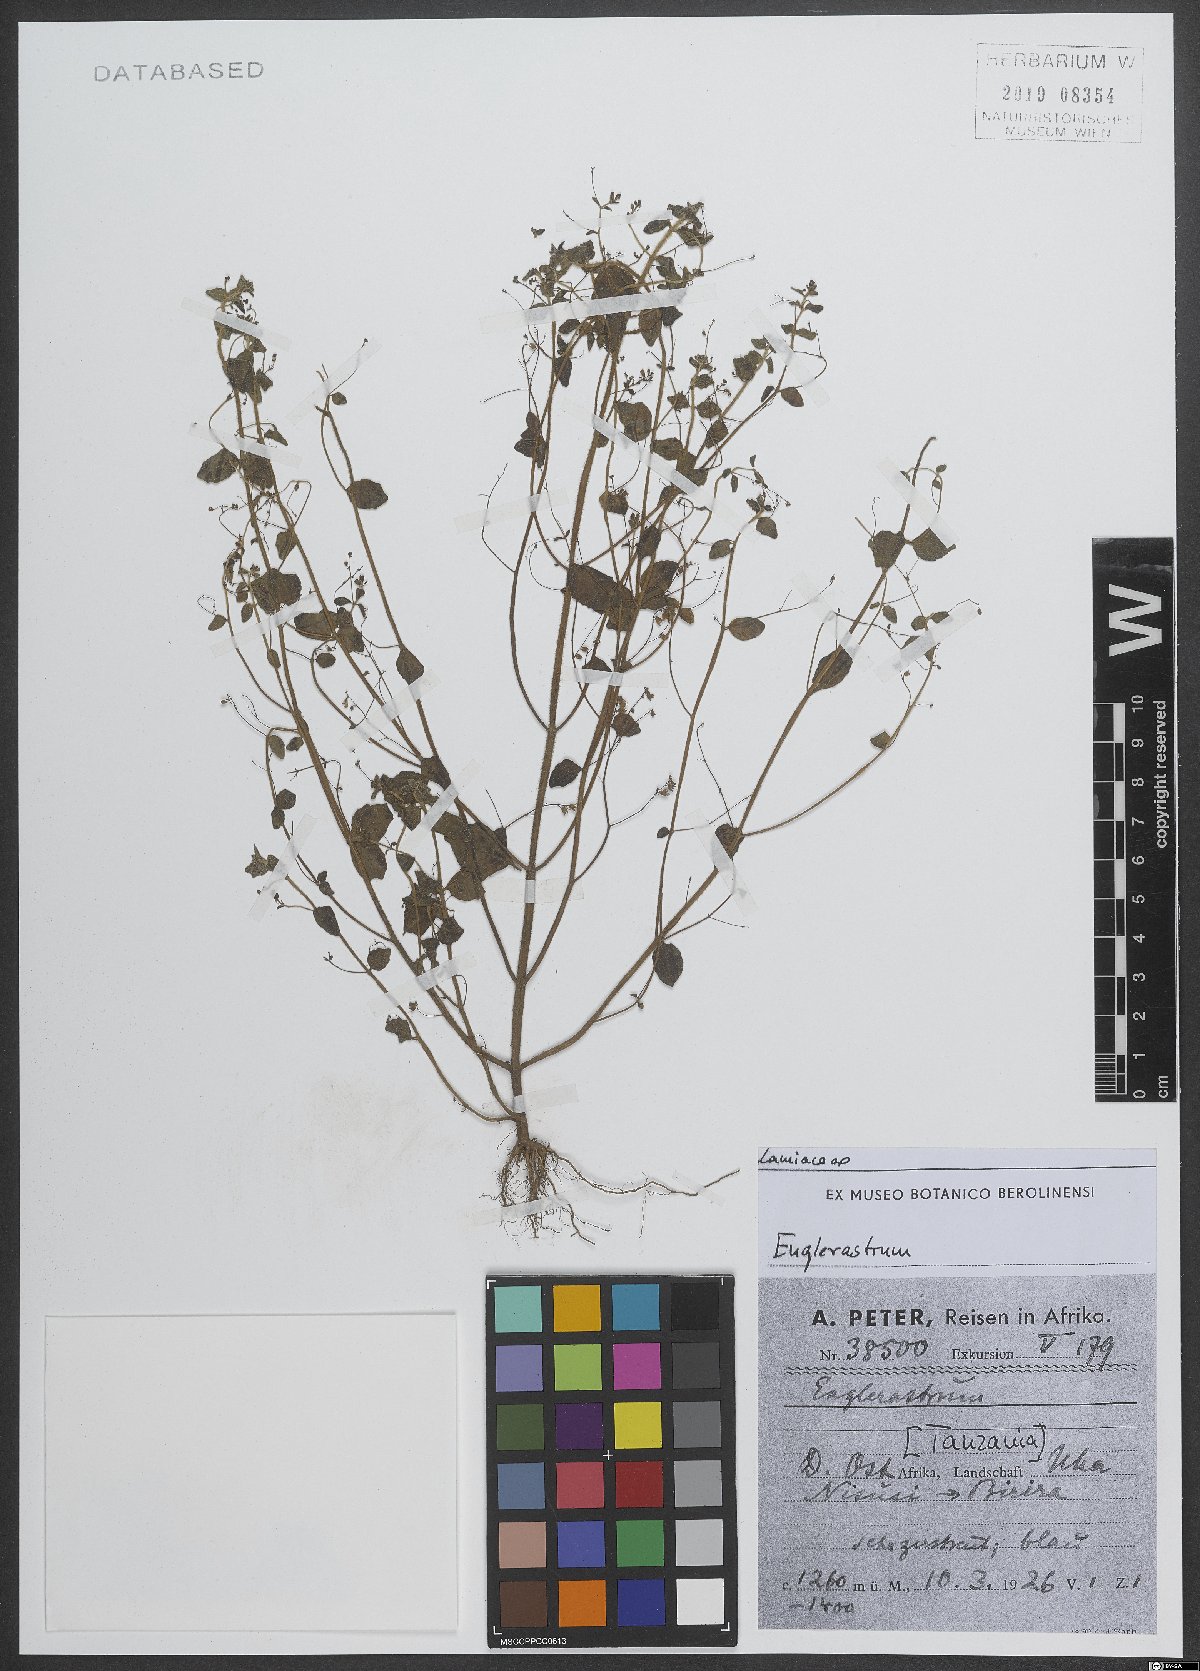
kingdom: Plantae
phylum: Tracheophyta
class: Magnoliopsida
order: Lamiales
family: Lamiaceae
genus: Coleus
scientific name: Coleus
